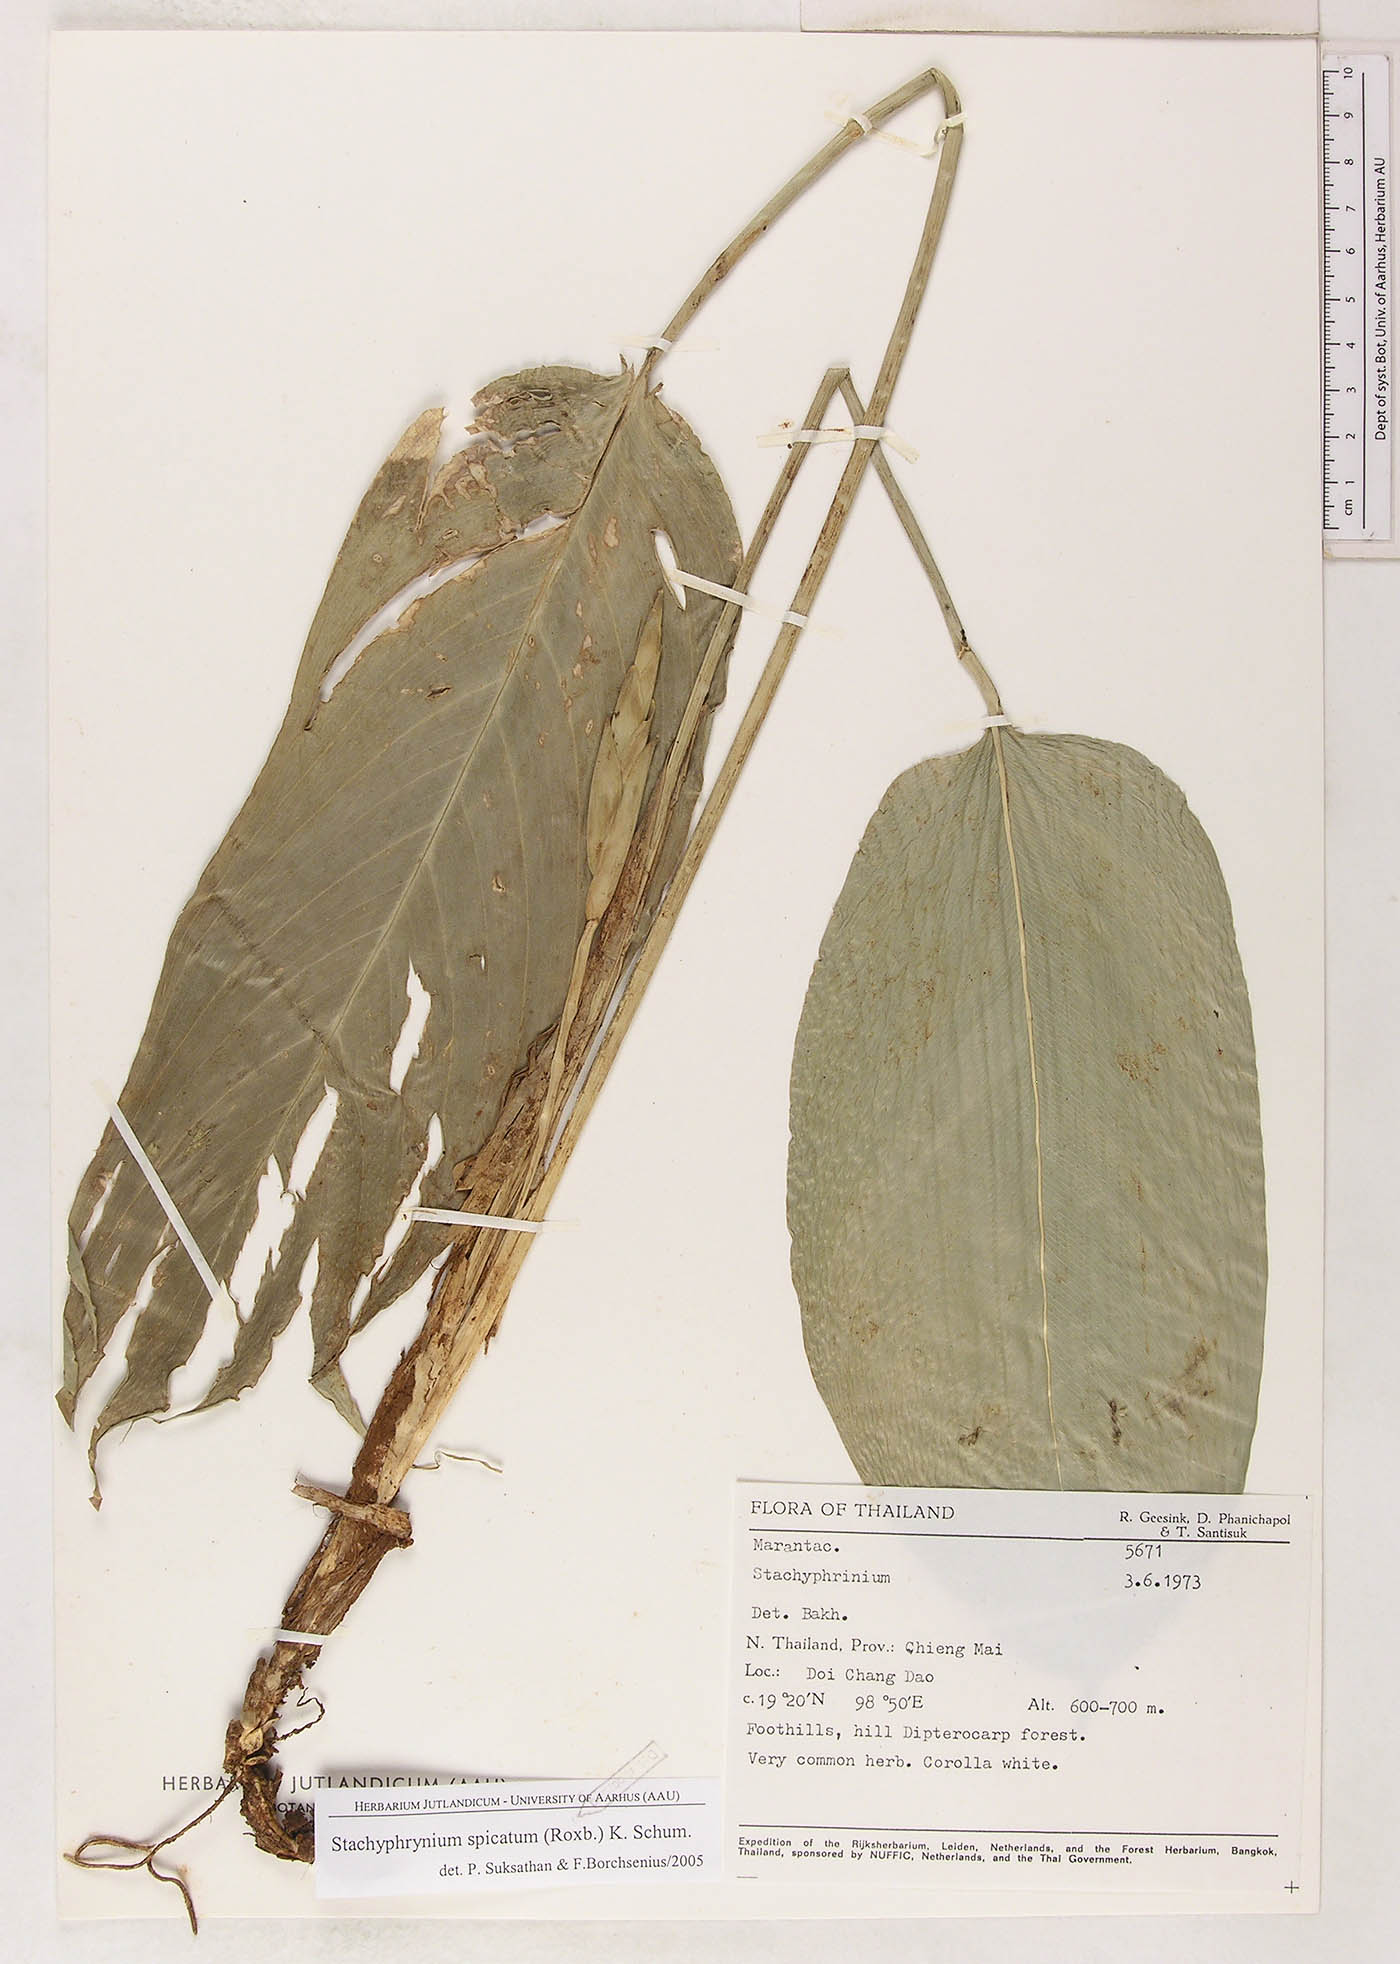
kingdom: Plantae
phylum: Tracheophyta
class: Liliopsida
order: Zingiberales
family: Marantaceae
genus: Stachyphrynium
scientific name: Stachyphrynium spicatum
